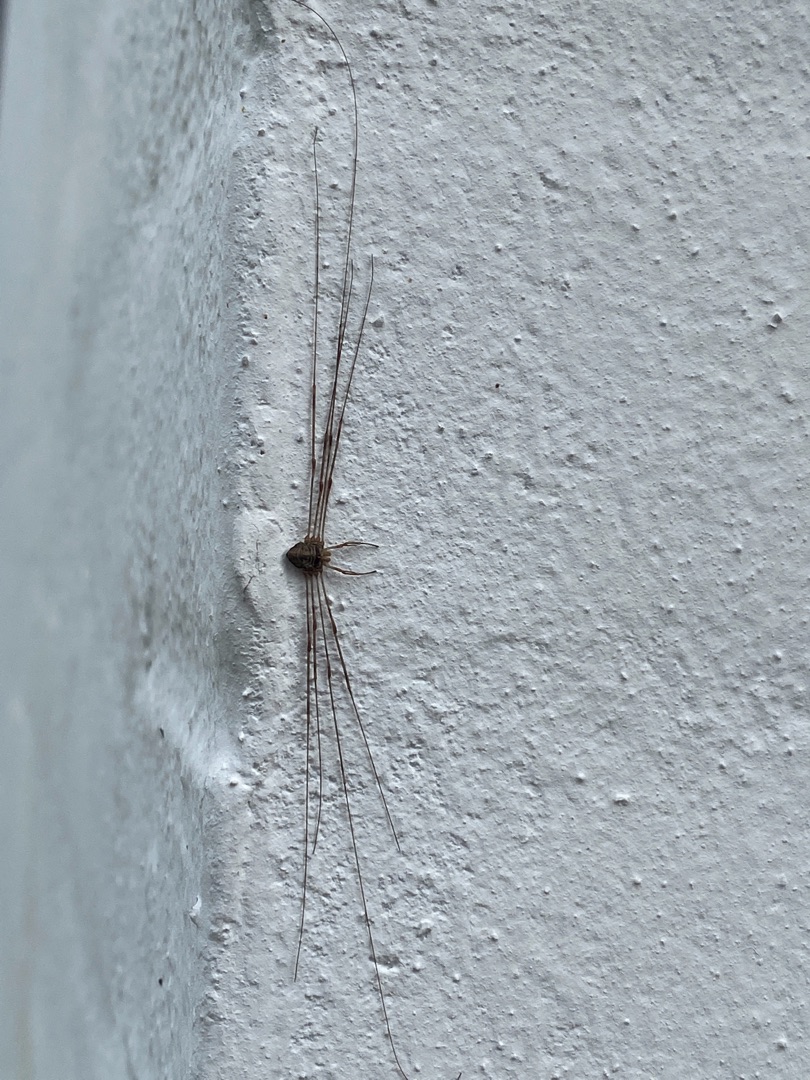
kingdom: Animalia
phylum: Arthropoda
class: Arachnida
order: Opiliones
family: Phalangiidae
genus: Dicranopalpus
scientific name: Dicranopalpus ramosus
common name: Gaffelmejer
